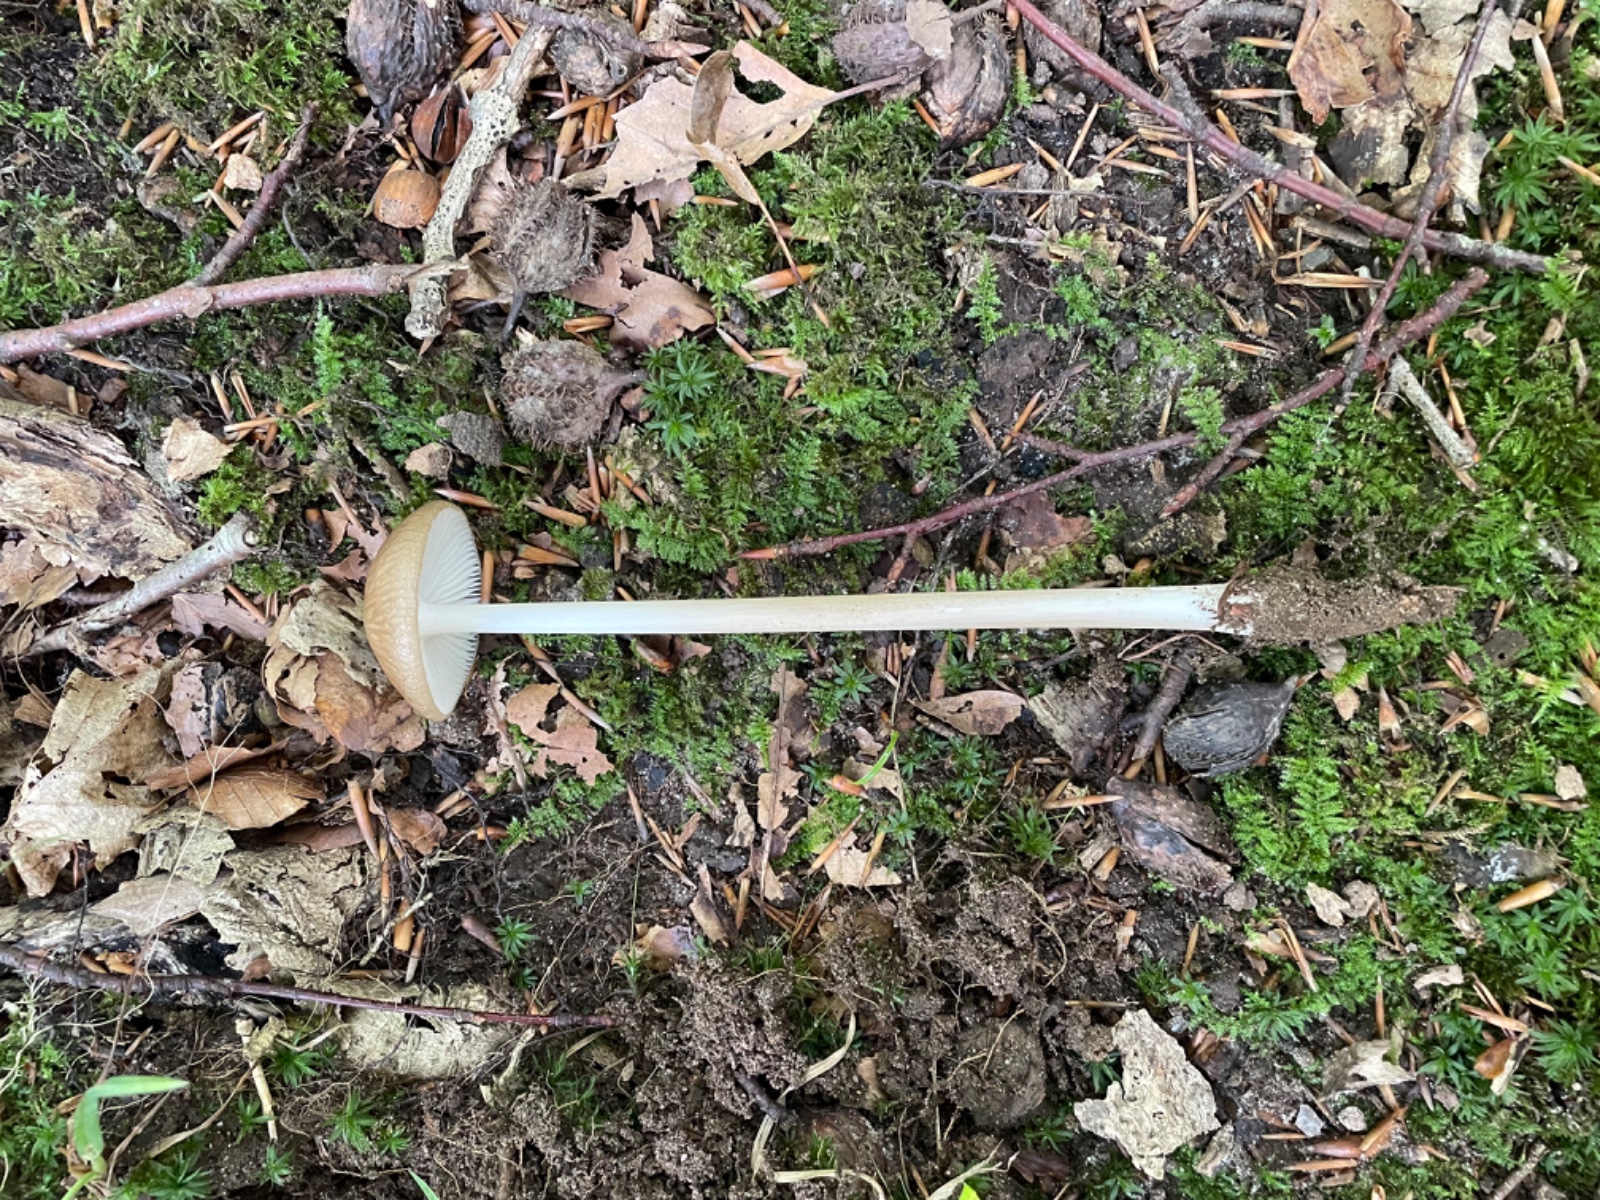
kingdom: Fungi
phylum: Basidiomycota
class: Agaricomycetes
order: Agaricales
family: Physalacriaceae
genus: Hymenopellis
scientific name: Hymenopellis radicata
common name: almindelig pælerodshat
